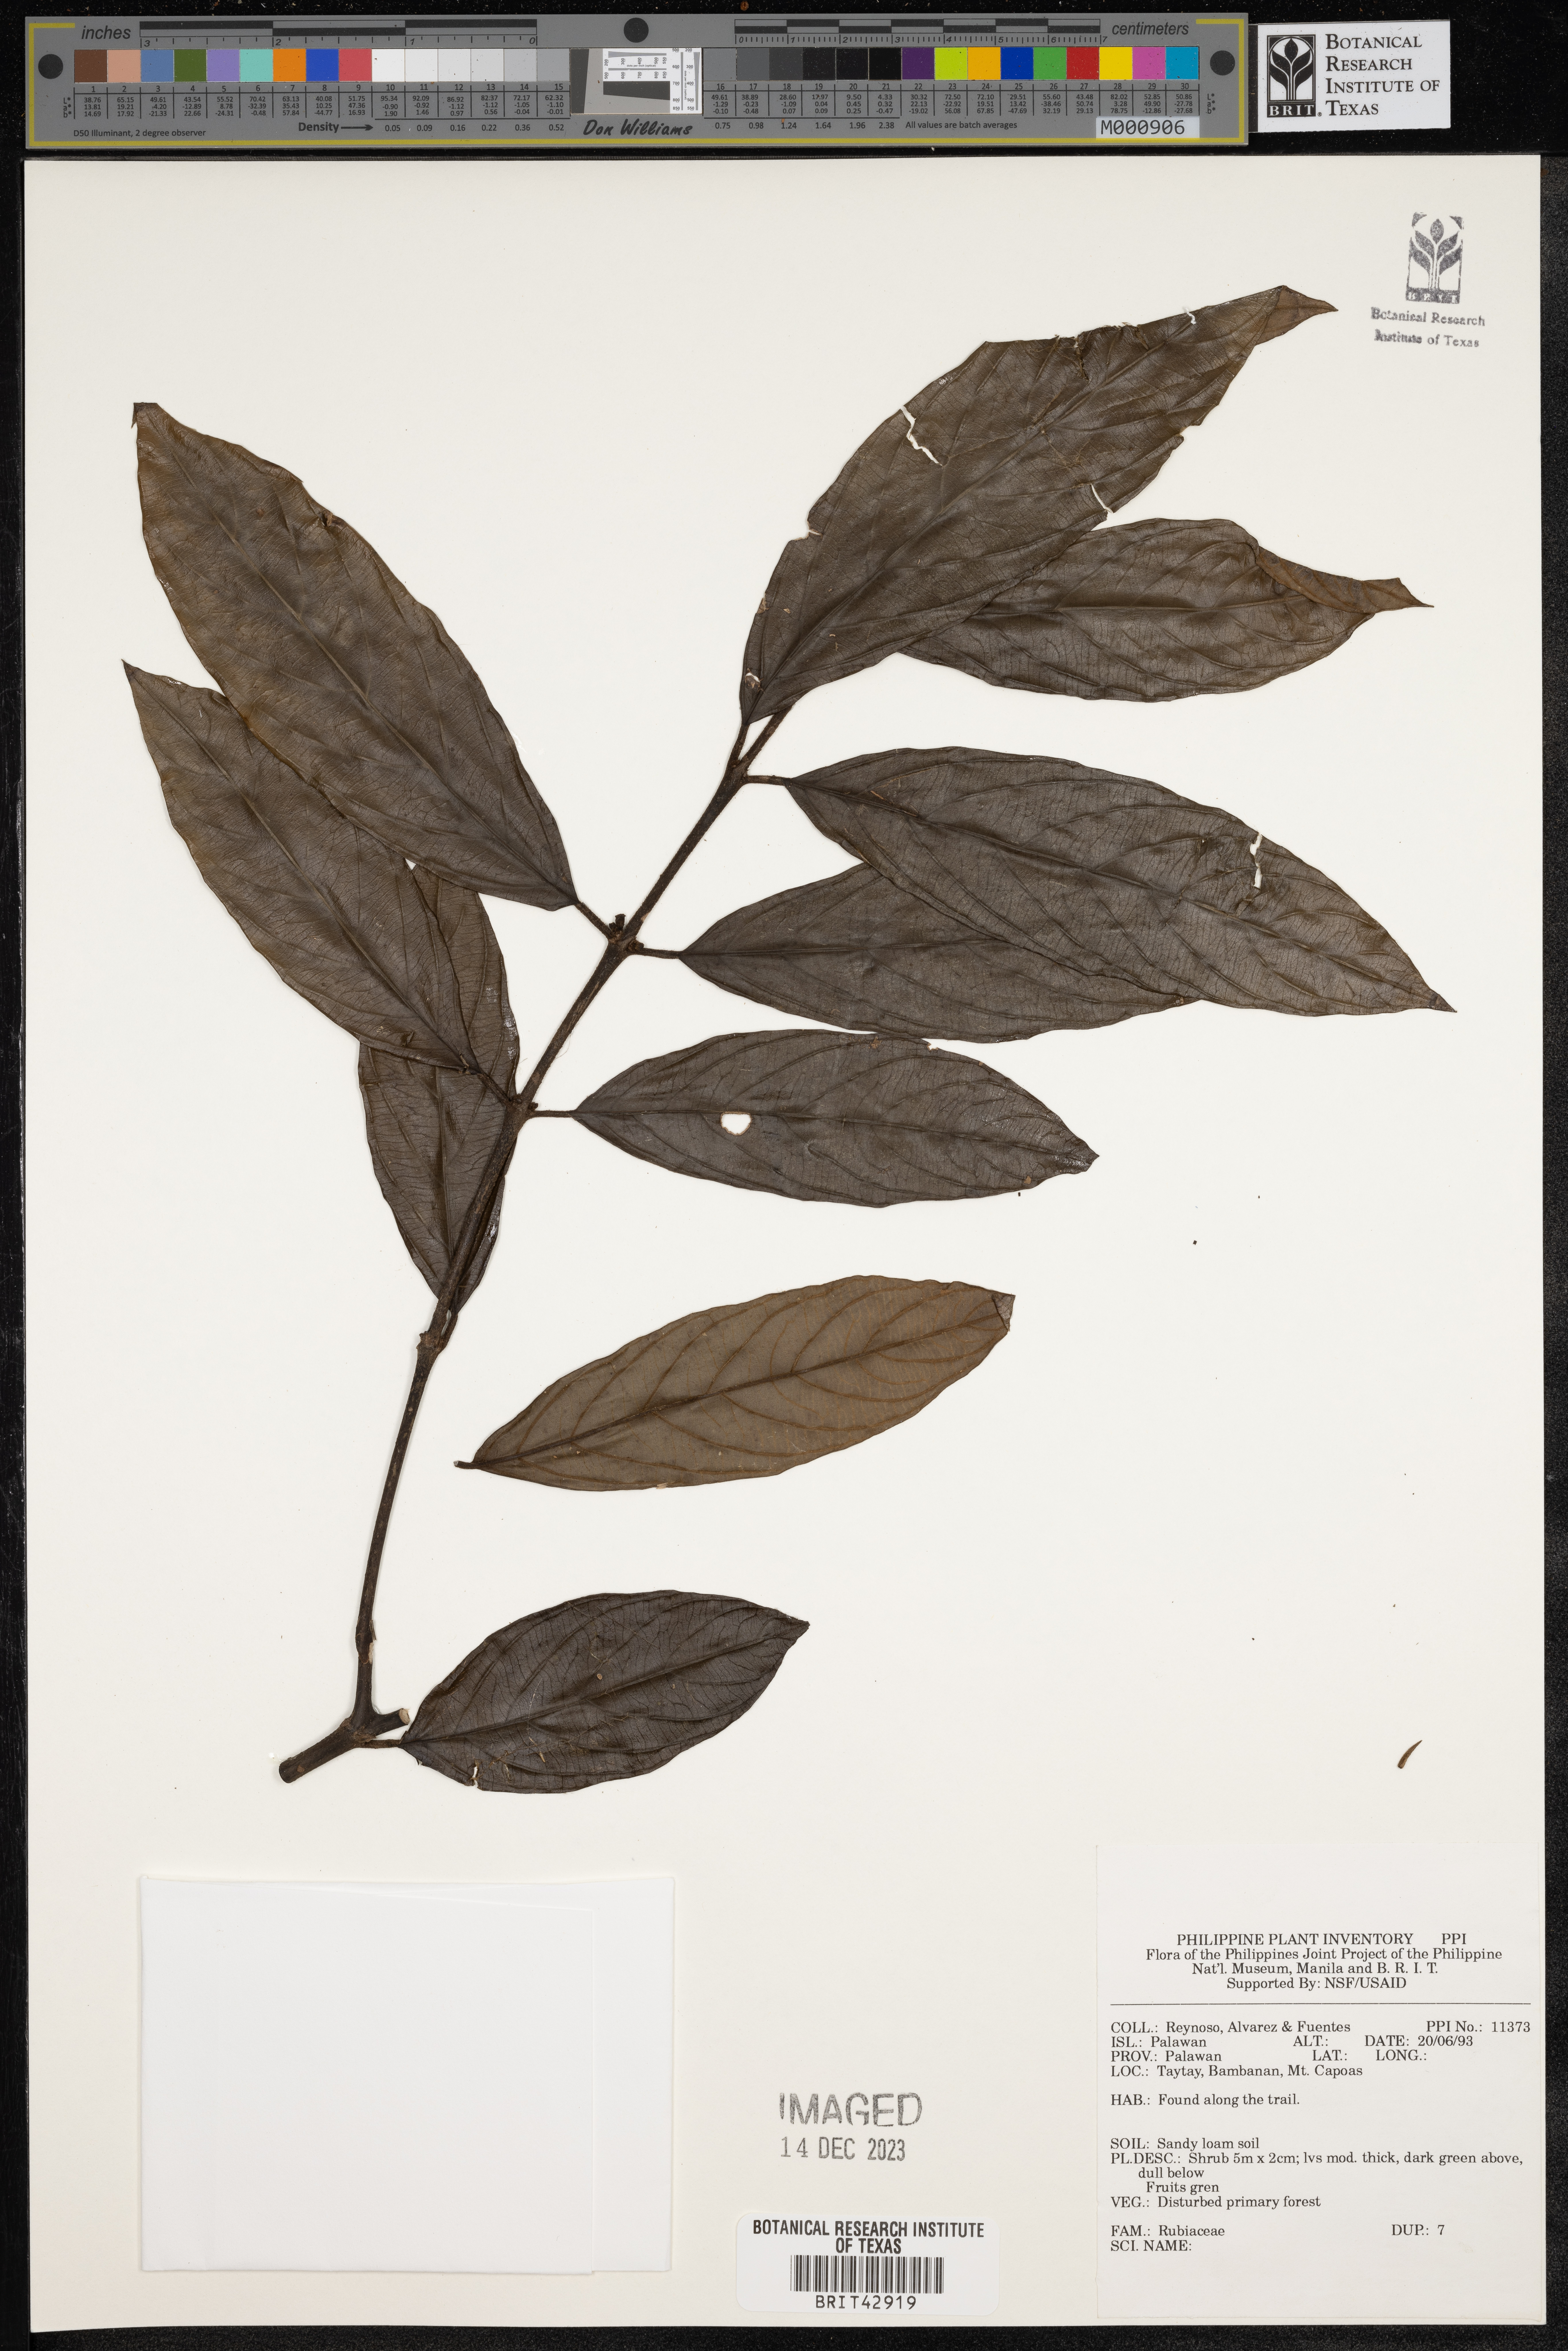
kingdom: Plantae
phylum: Tracheophyta
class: Magnoliopsida
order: Gentianales
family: Rubiaceae
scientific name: Rubiaceae
